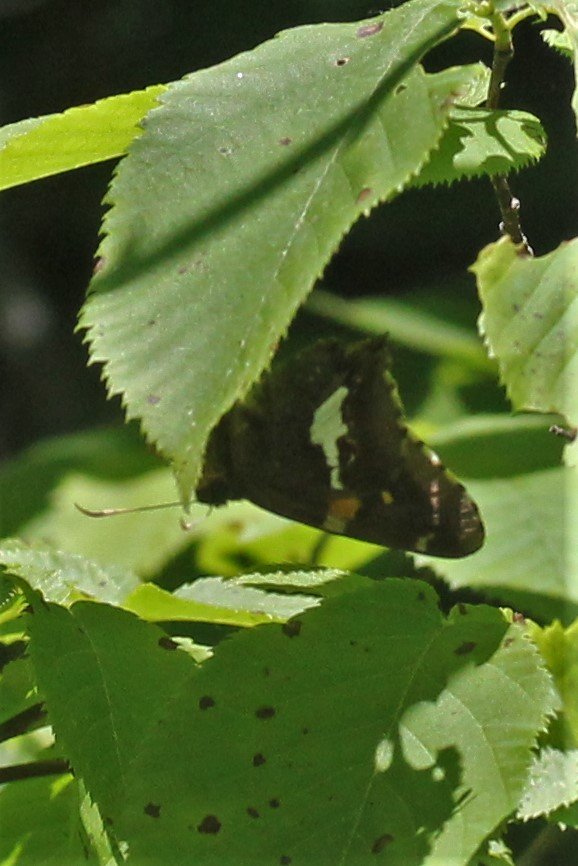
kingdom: Animalia
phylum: Arthropoda
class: Insecta
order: Lepidoptera
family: Hesperiidae
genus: Epargyreus
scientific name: Epargyreus clarus
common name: Silver-spotted Skipper
